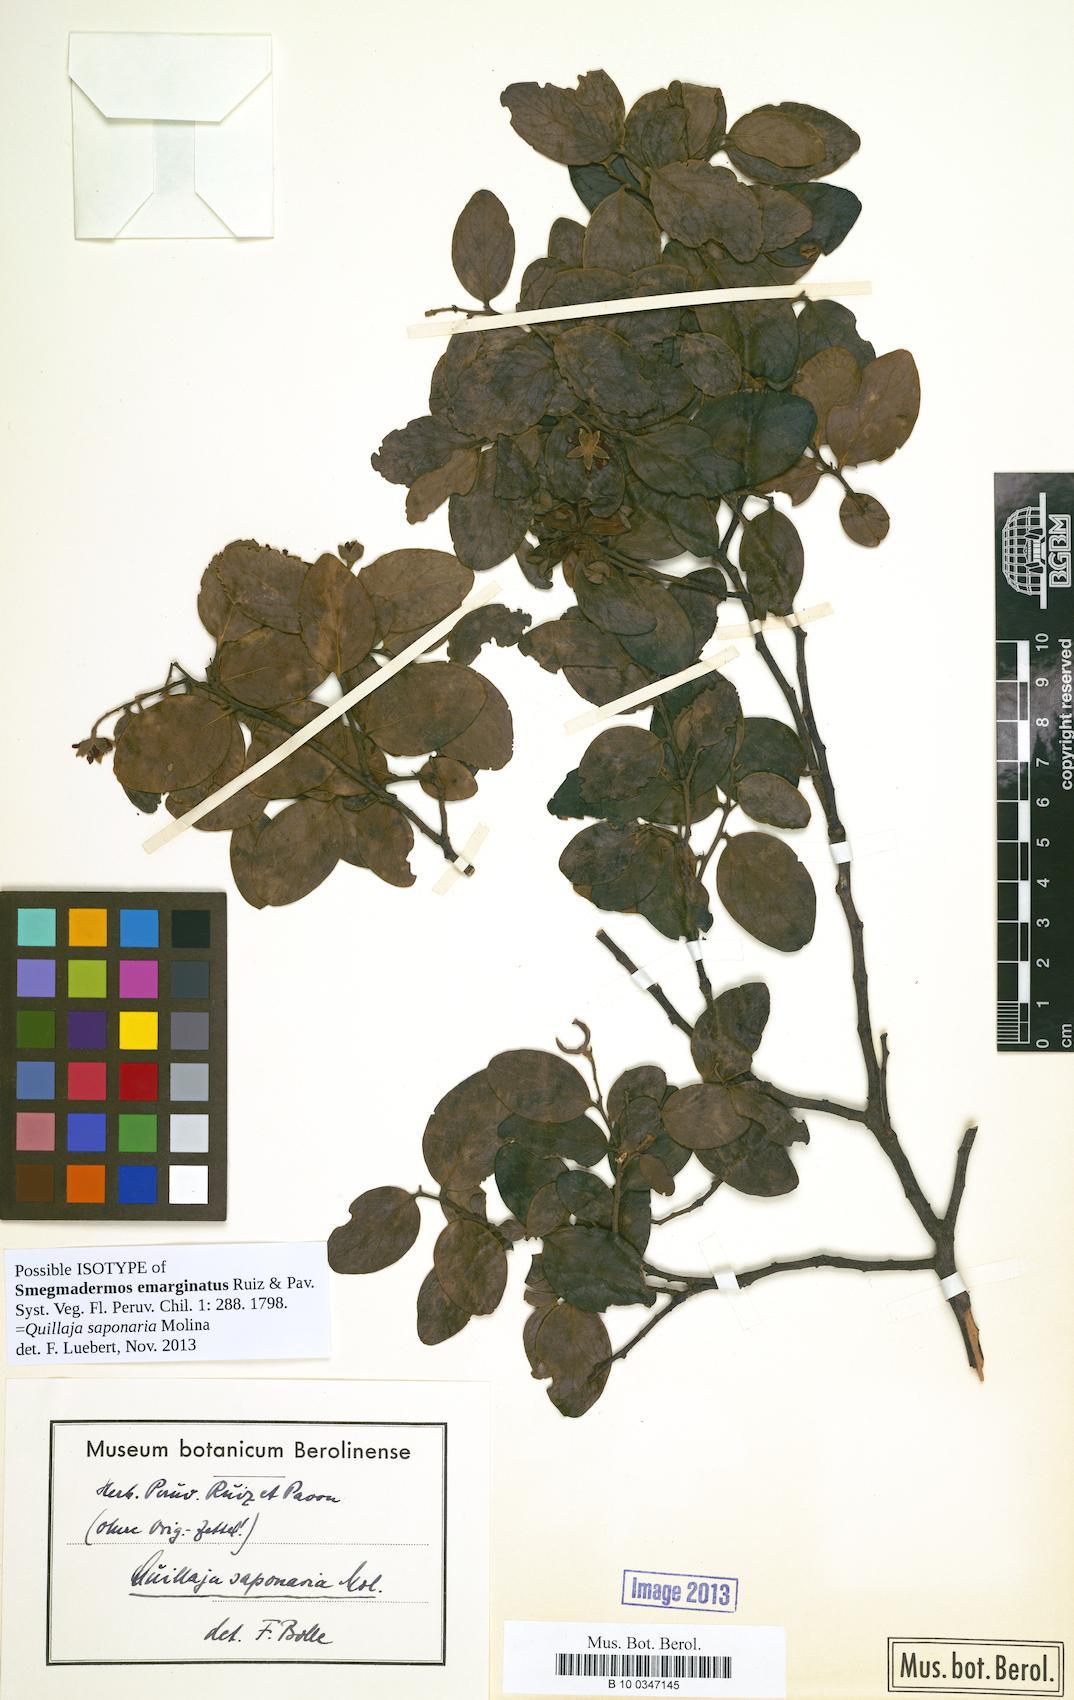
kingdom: Plantae
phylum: Tracheophyta
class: Magnoliopsida
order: Fabales
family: Quillajaceae
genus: Quillaja
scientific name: Quillaja saponaria
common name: Murillo's-bark
